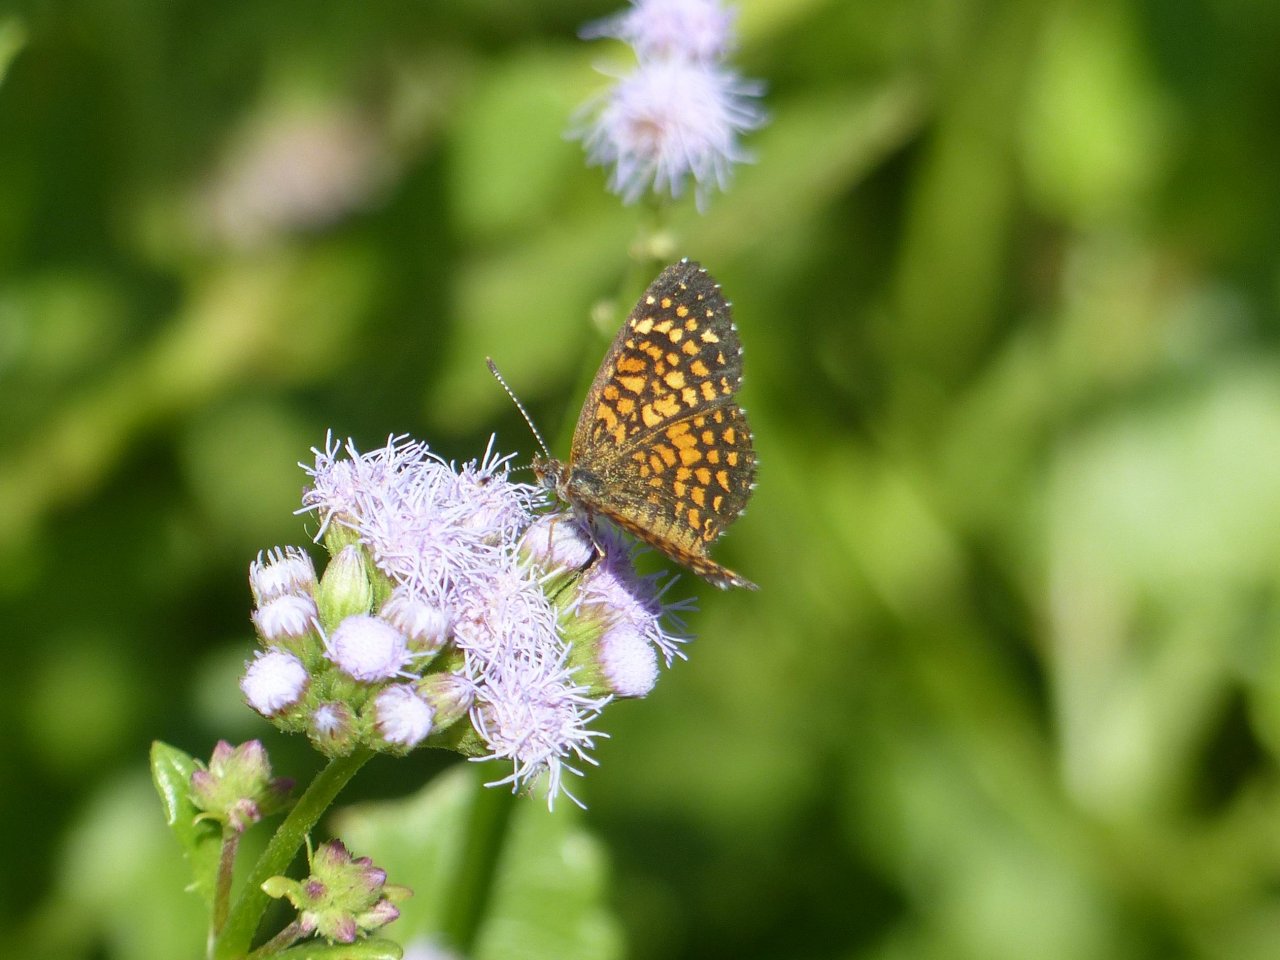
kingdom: Animalia
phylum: Arthropoda
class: Insecta
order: Lepidoptera
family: Nymphalidae
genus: Texola
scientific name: Texola elada
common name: Elada Checkerspot
